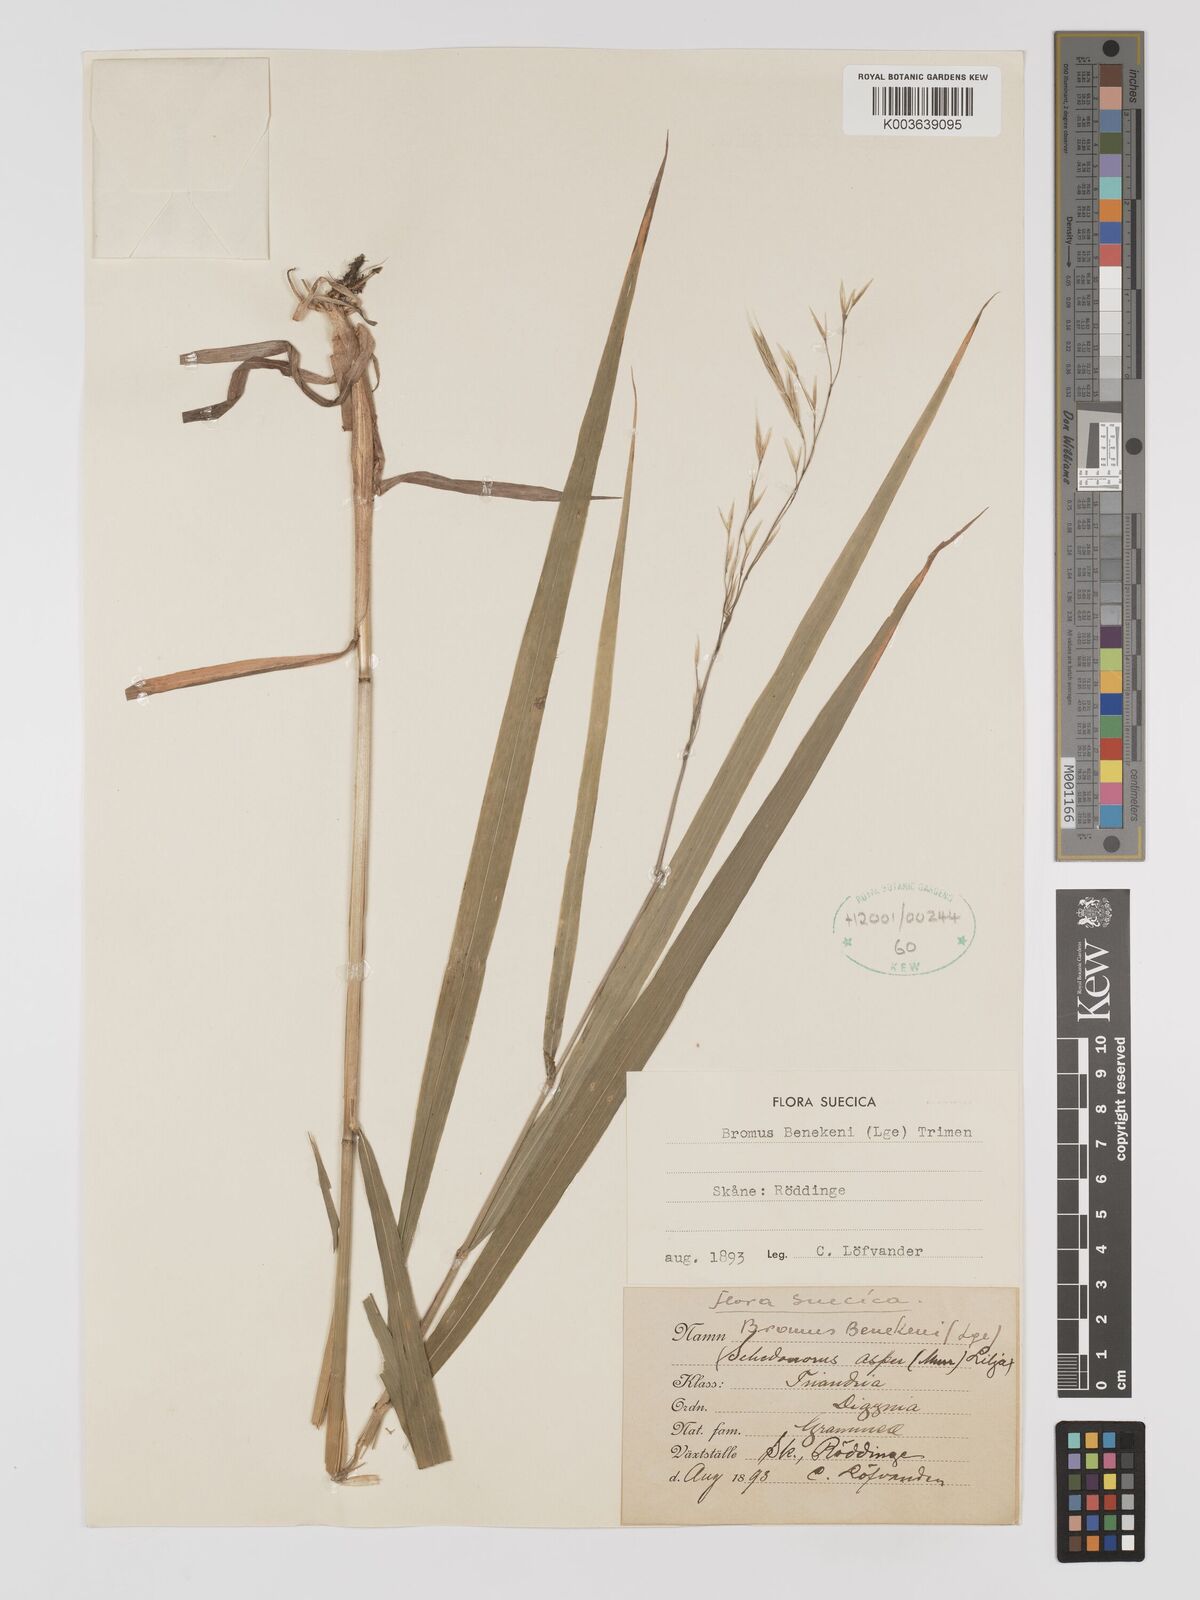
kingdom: Plantae
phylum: Tracheophyta
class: Liliopsida
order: Poales
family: Poaceae
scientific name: Poaceae
